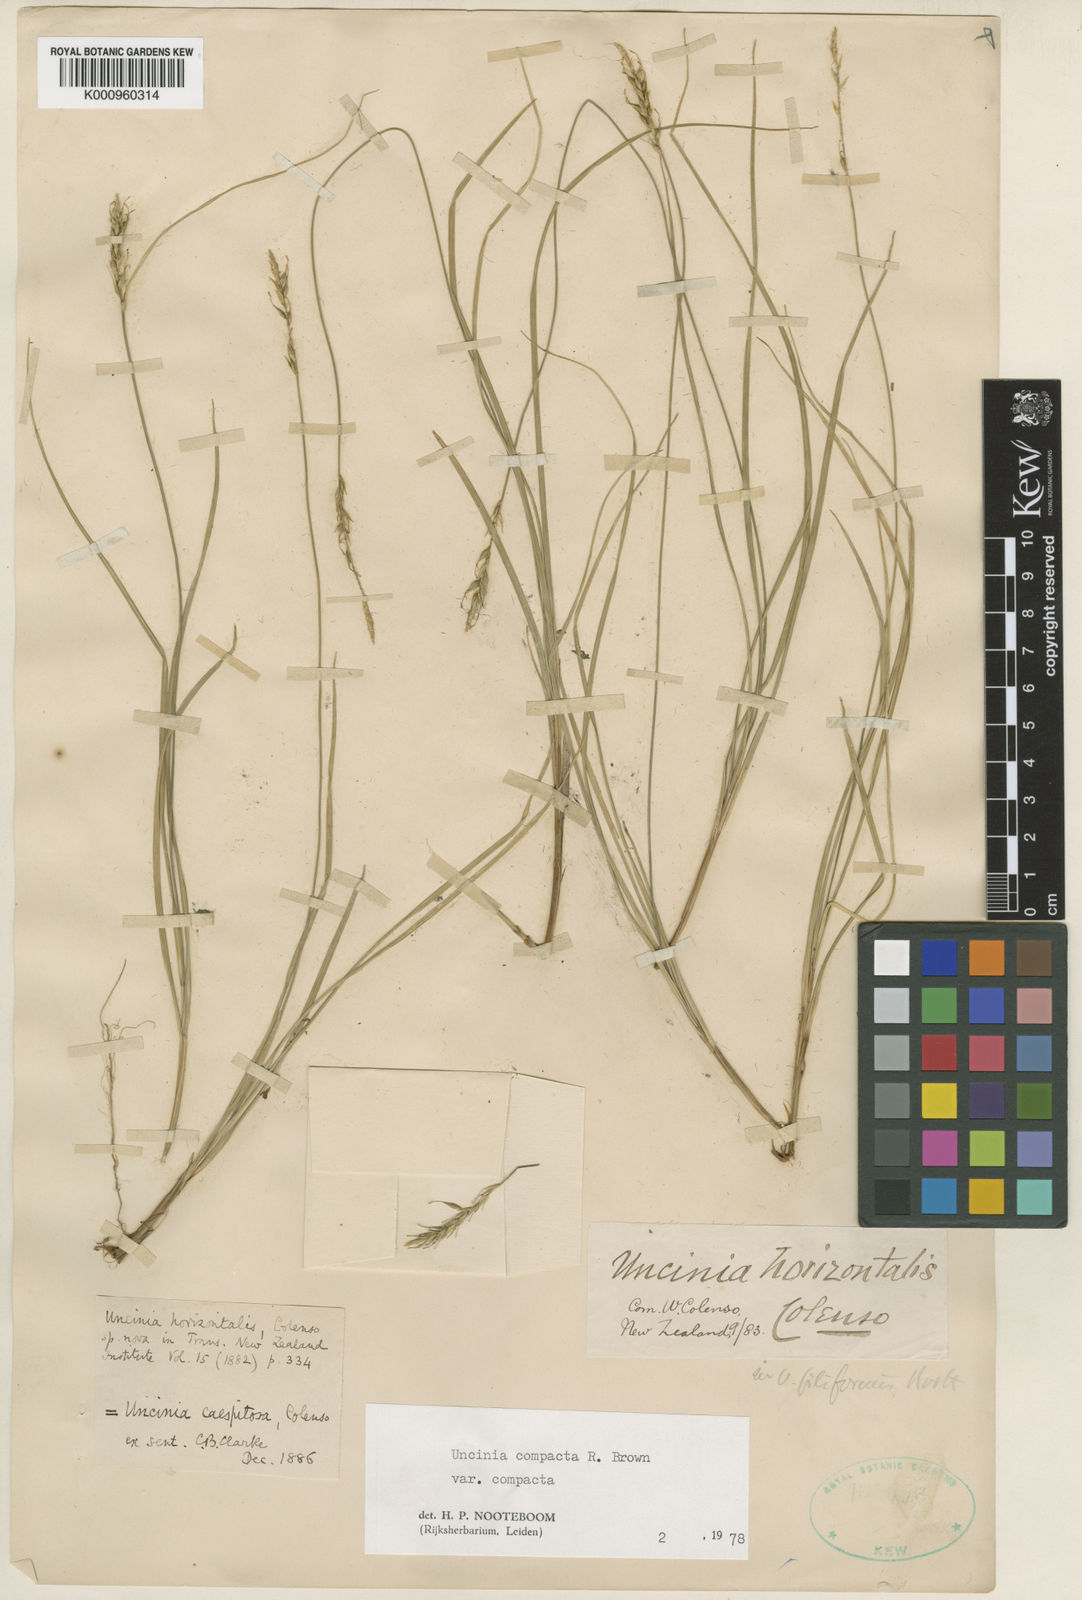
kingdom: Plantae
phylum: Tracheophyta
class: Liliopsida
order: Poales
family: Cyperaceae
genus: Carex
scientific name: Carex astricta
